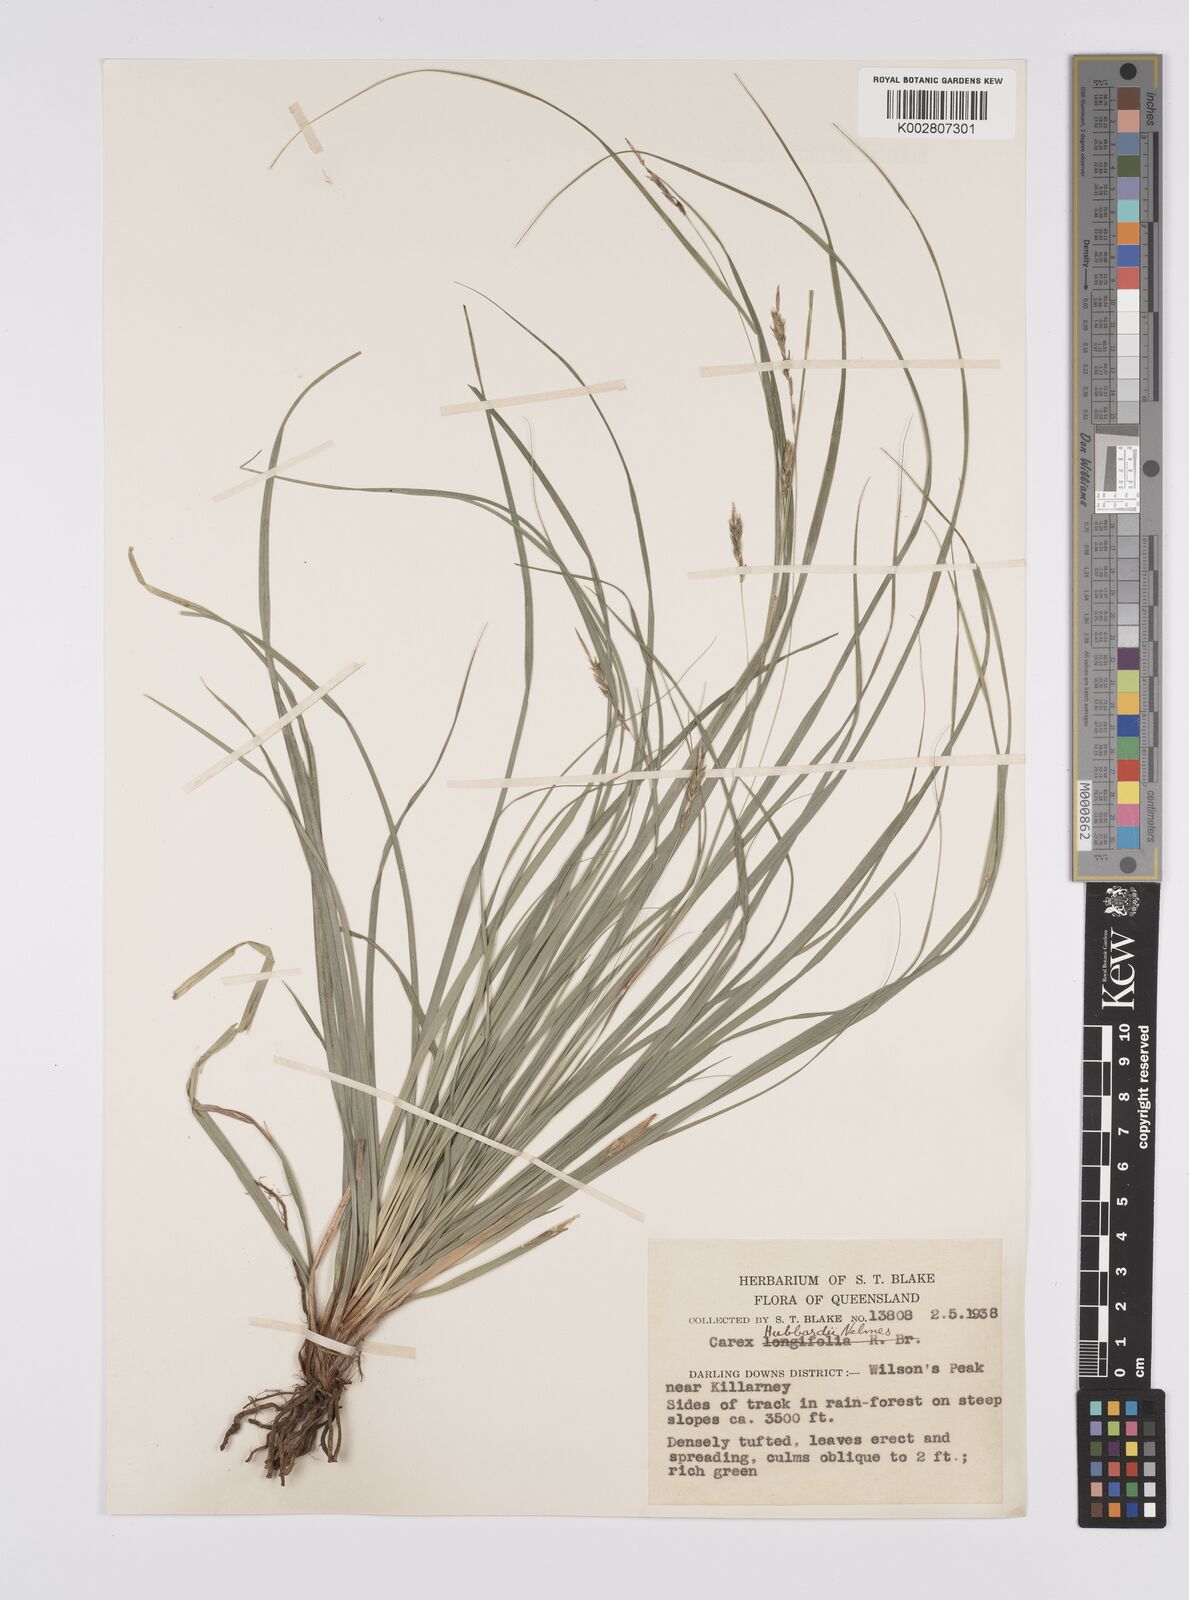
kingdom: Plantae
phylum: Tracheophyta
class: Liliopsida
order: Poales
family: Cyperaceae
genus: Carex
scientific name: Carex hubbardii
